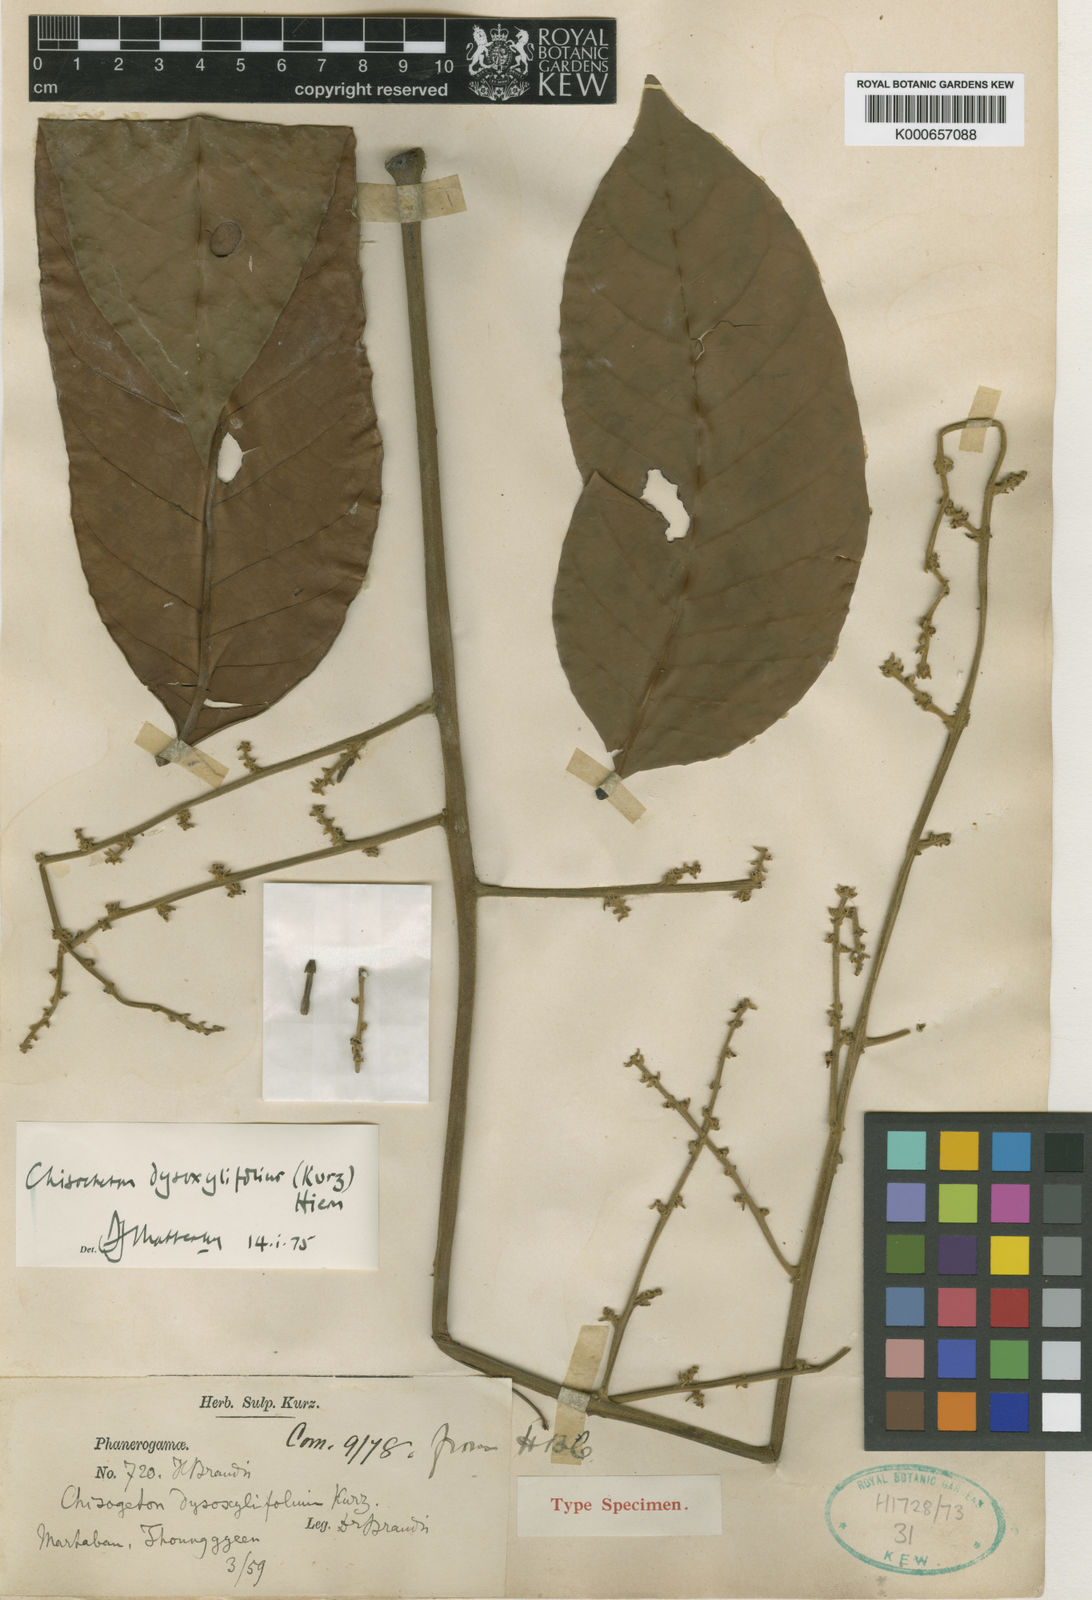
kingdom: Plantae
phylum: Tracheophyta
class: Magnoliopsida
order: Sapindales
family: Meliaceae
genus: Chisocheton
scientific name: Chisocheton dysoxylifolius
